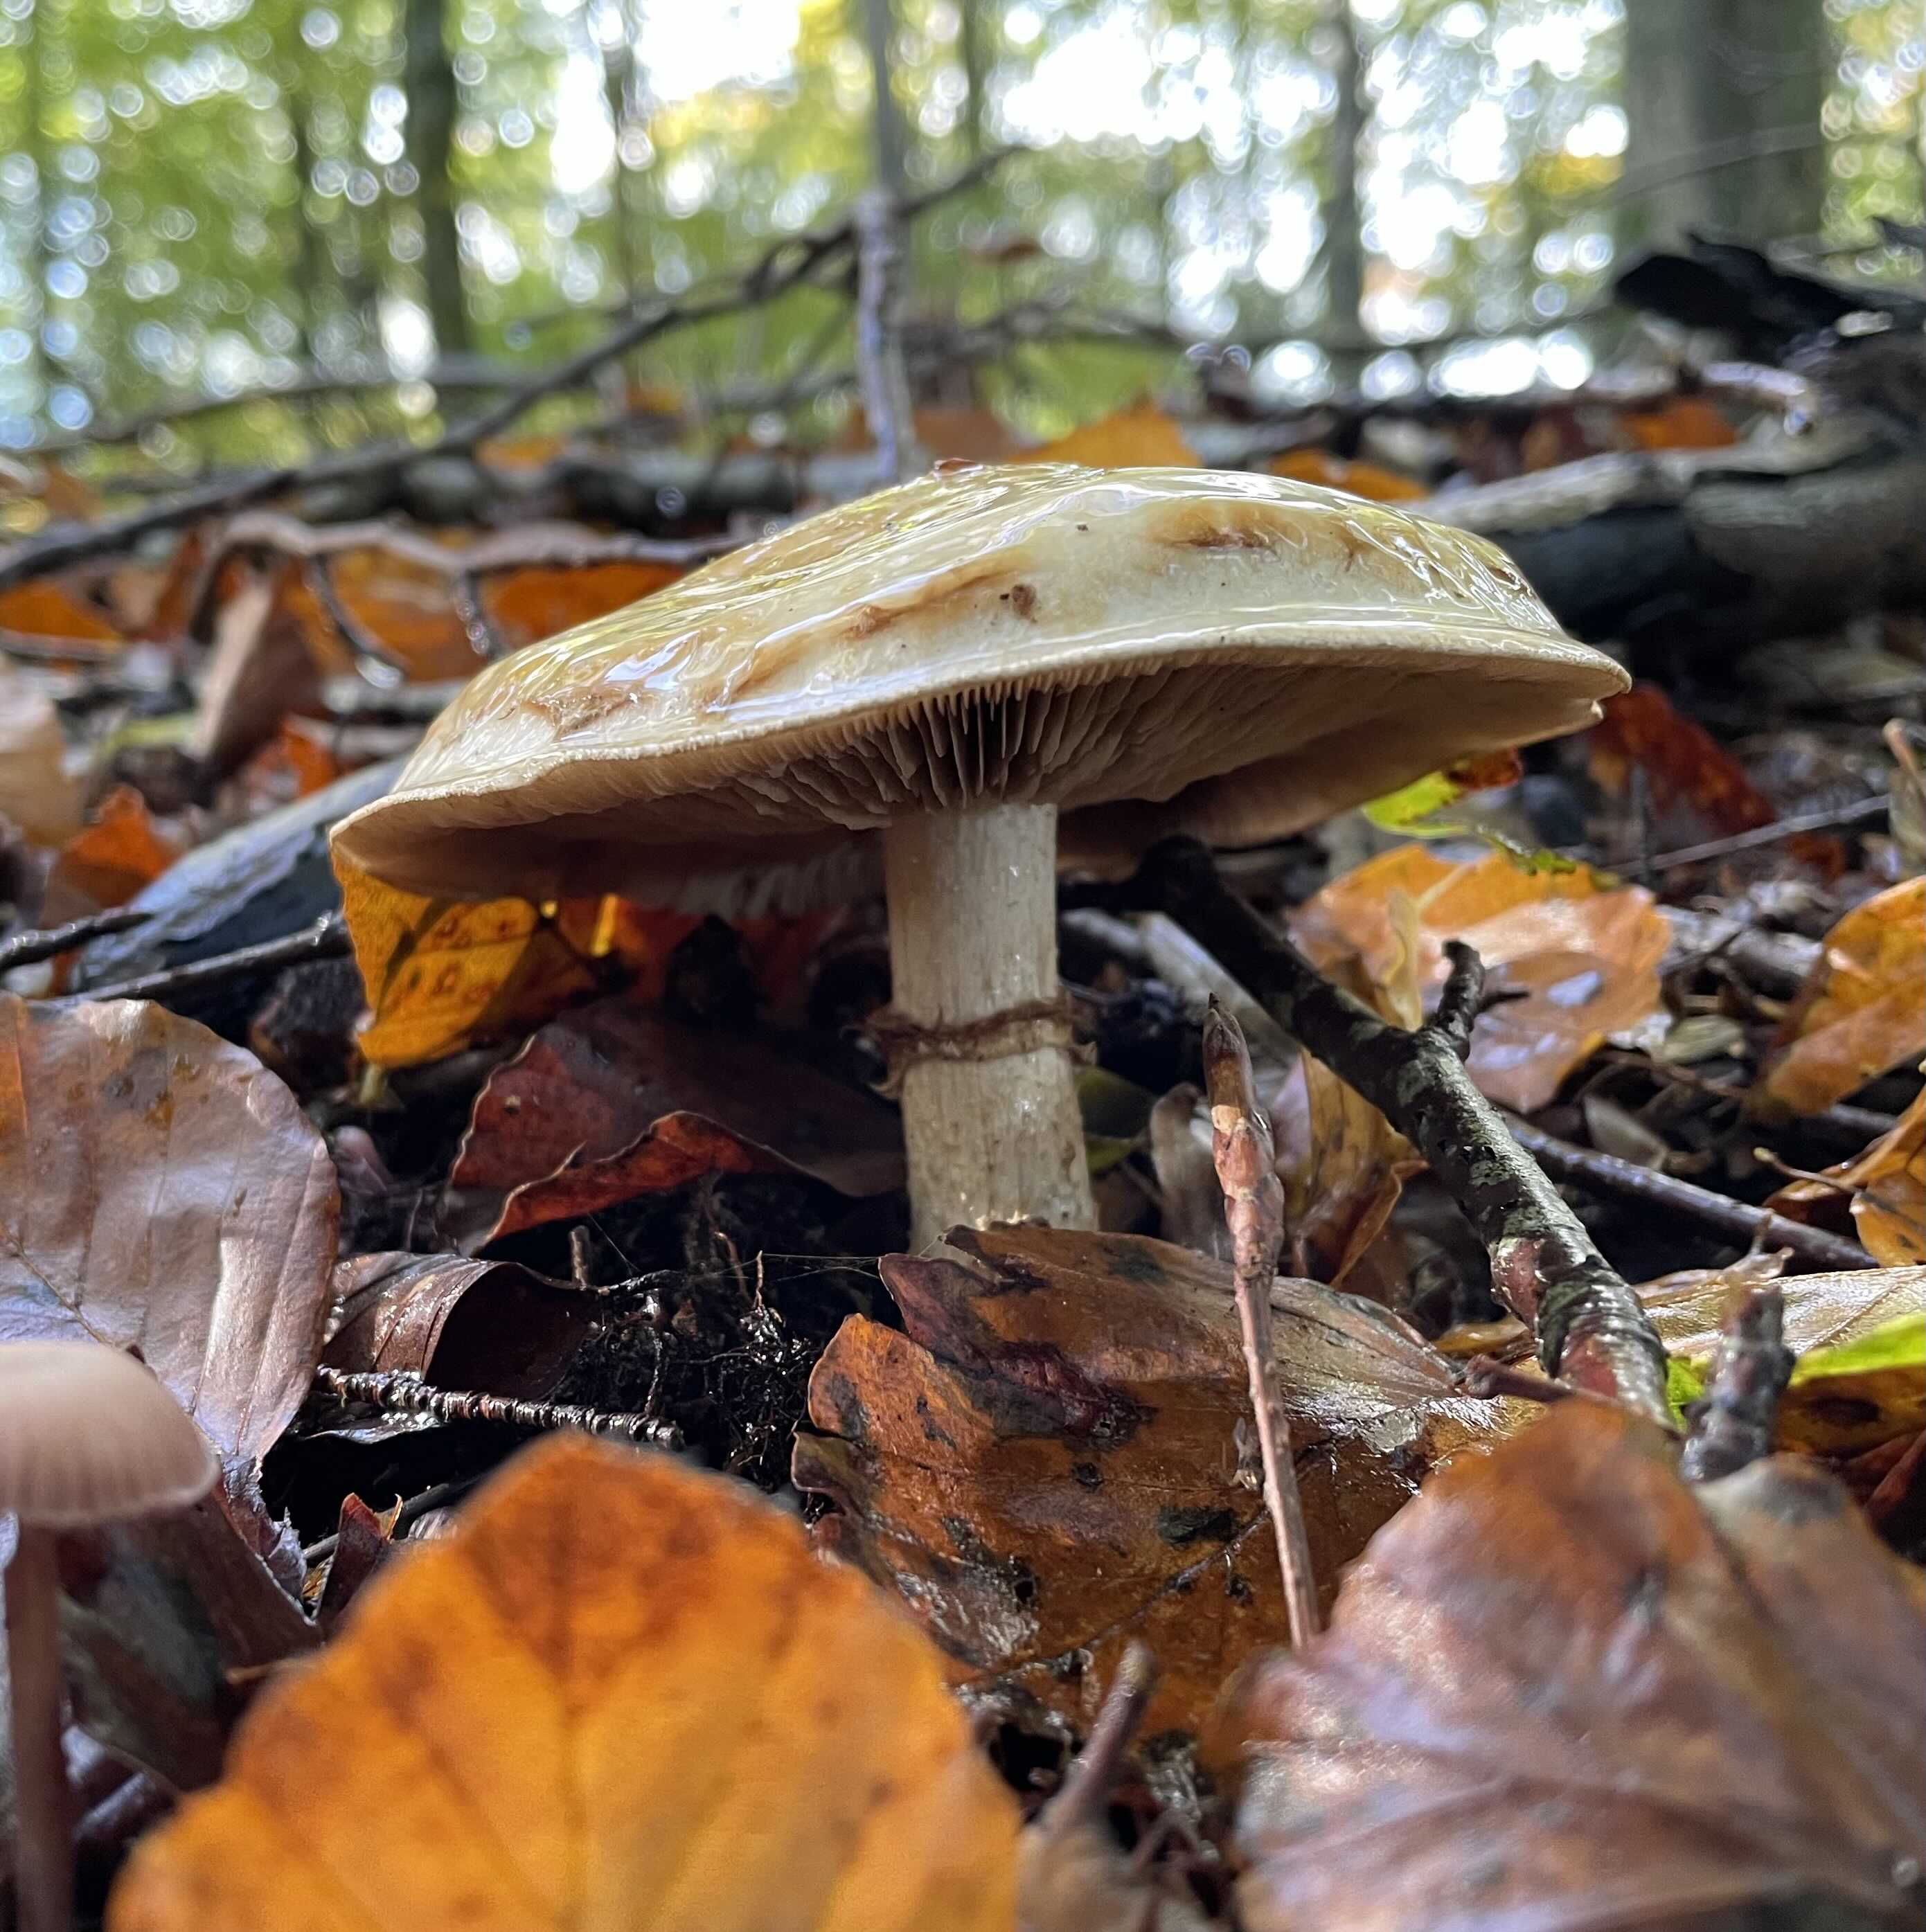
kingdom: Fungi
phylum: Basidiomycota
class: Agaricomycetes
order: Agaricales
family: Hymenogastraceae
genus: Hebeloma
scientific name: Hebeloma radicosum
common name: pælerods-tåreblad
